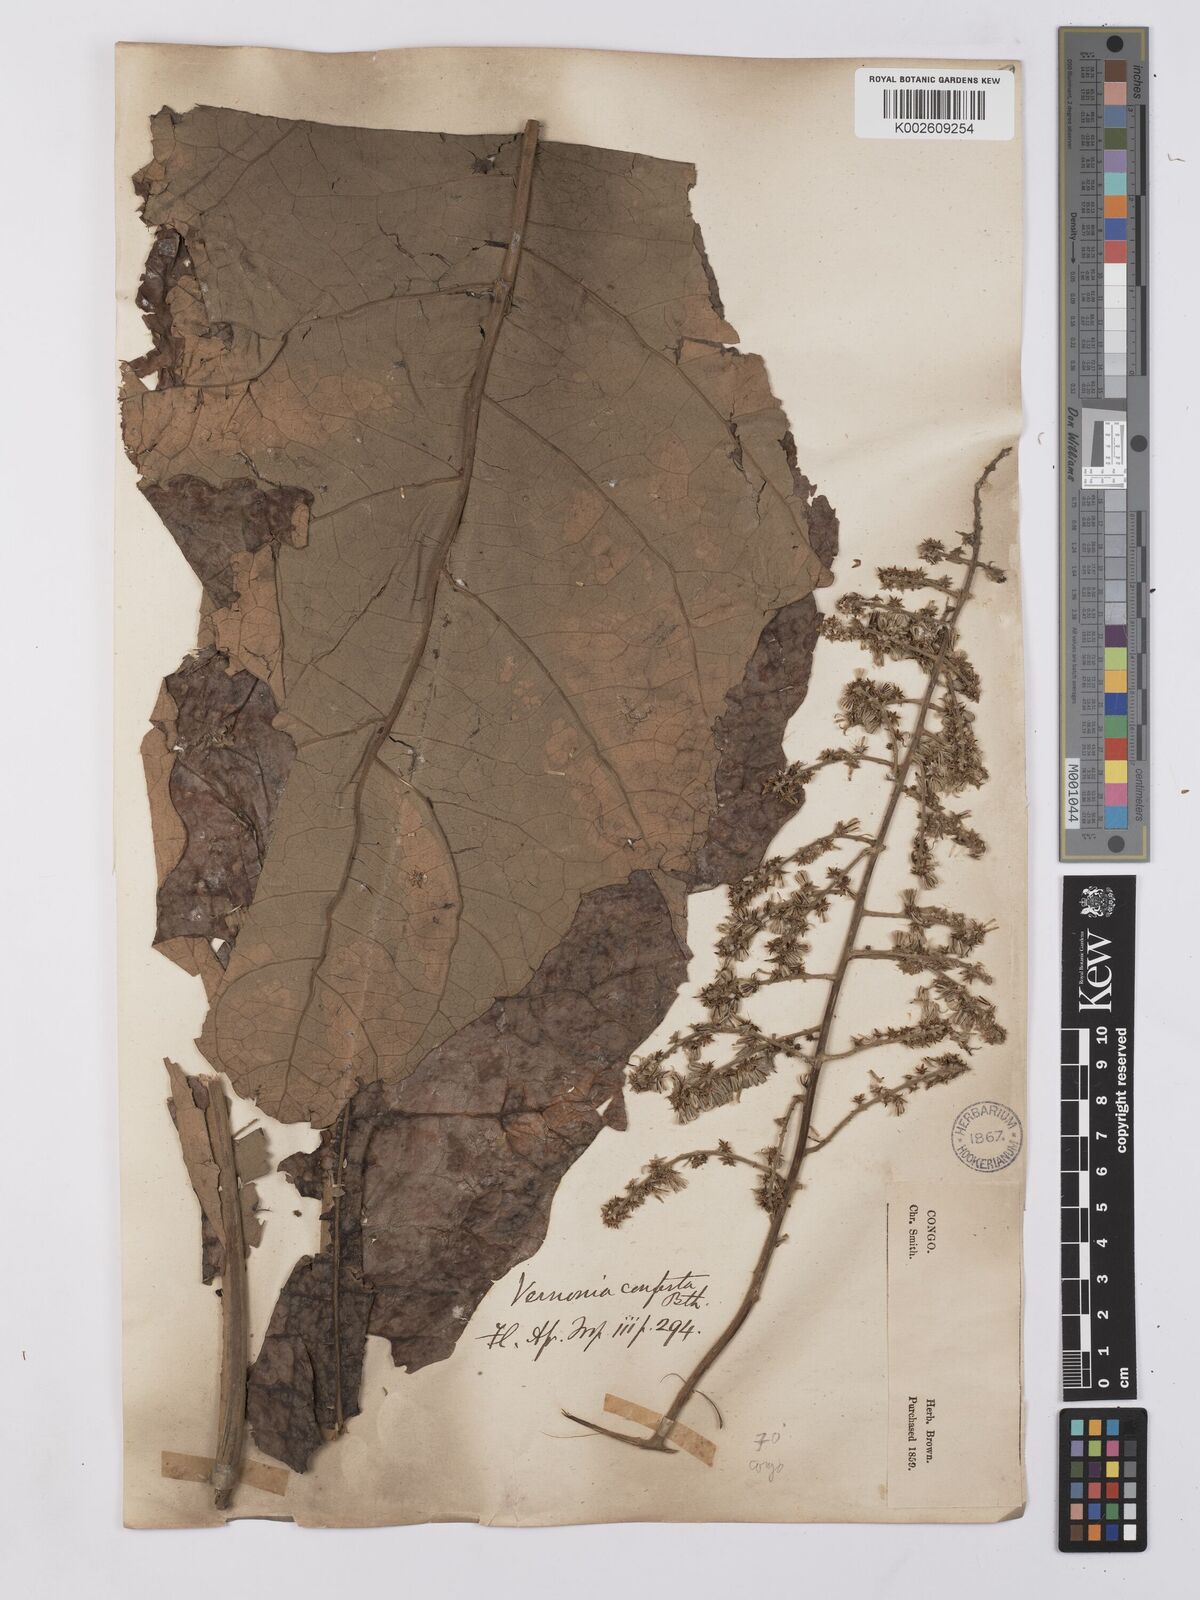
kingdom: Plantae
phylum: Tracheophyta
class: Magnoliopsida
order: Asterales
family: Asteraceae
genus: Monosis
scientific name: Monosis conferta
